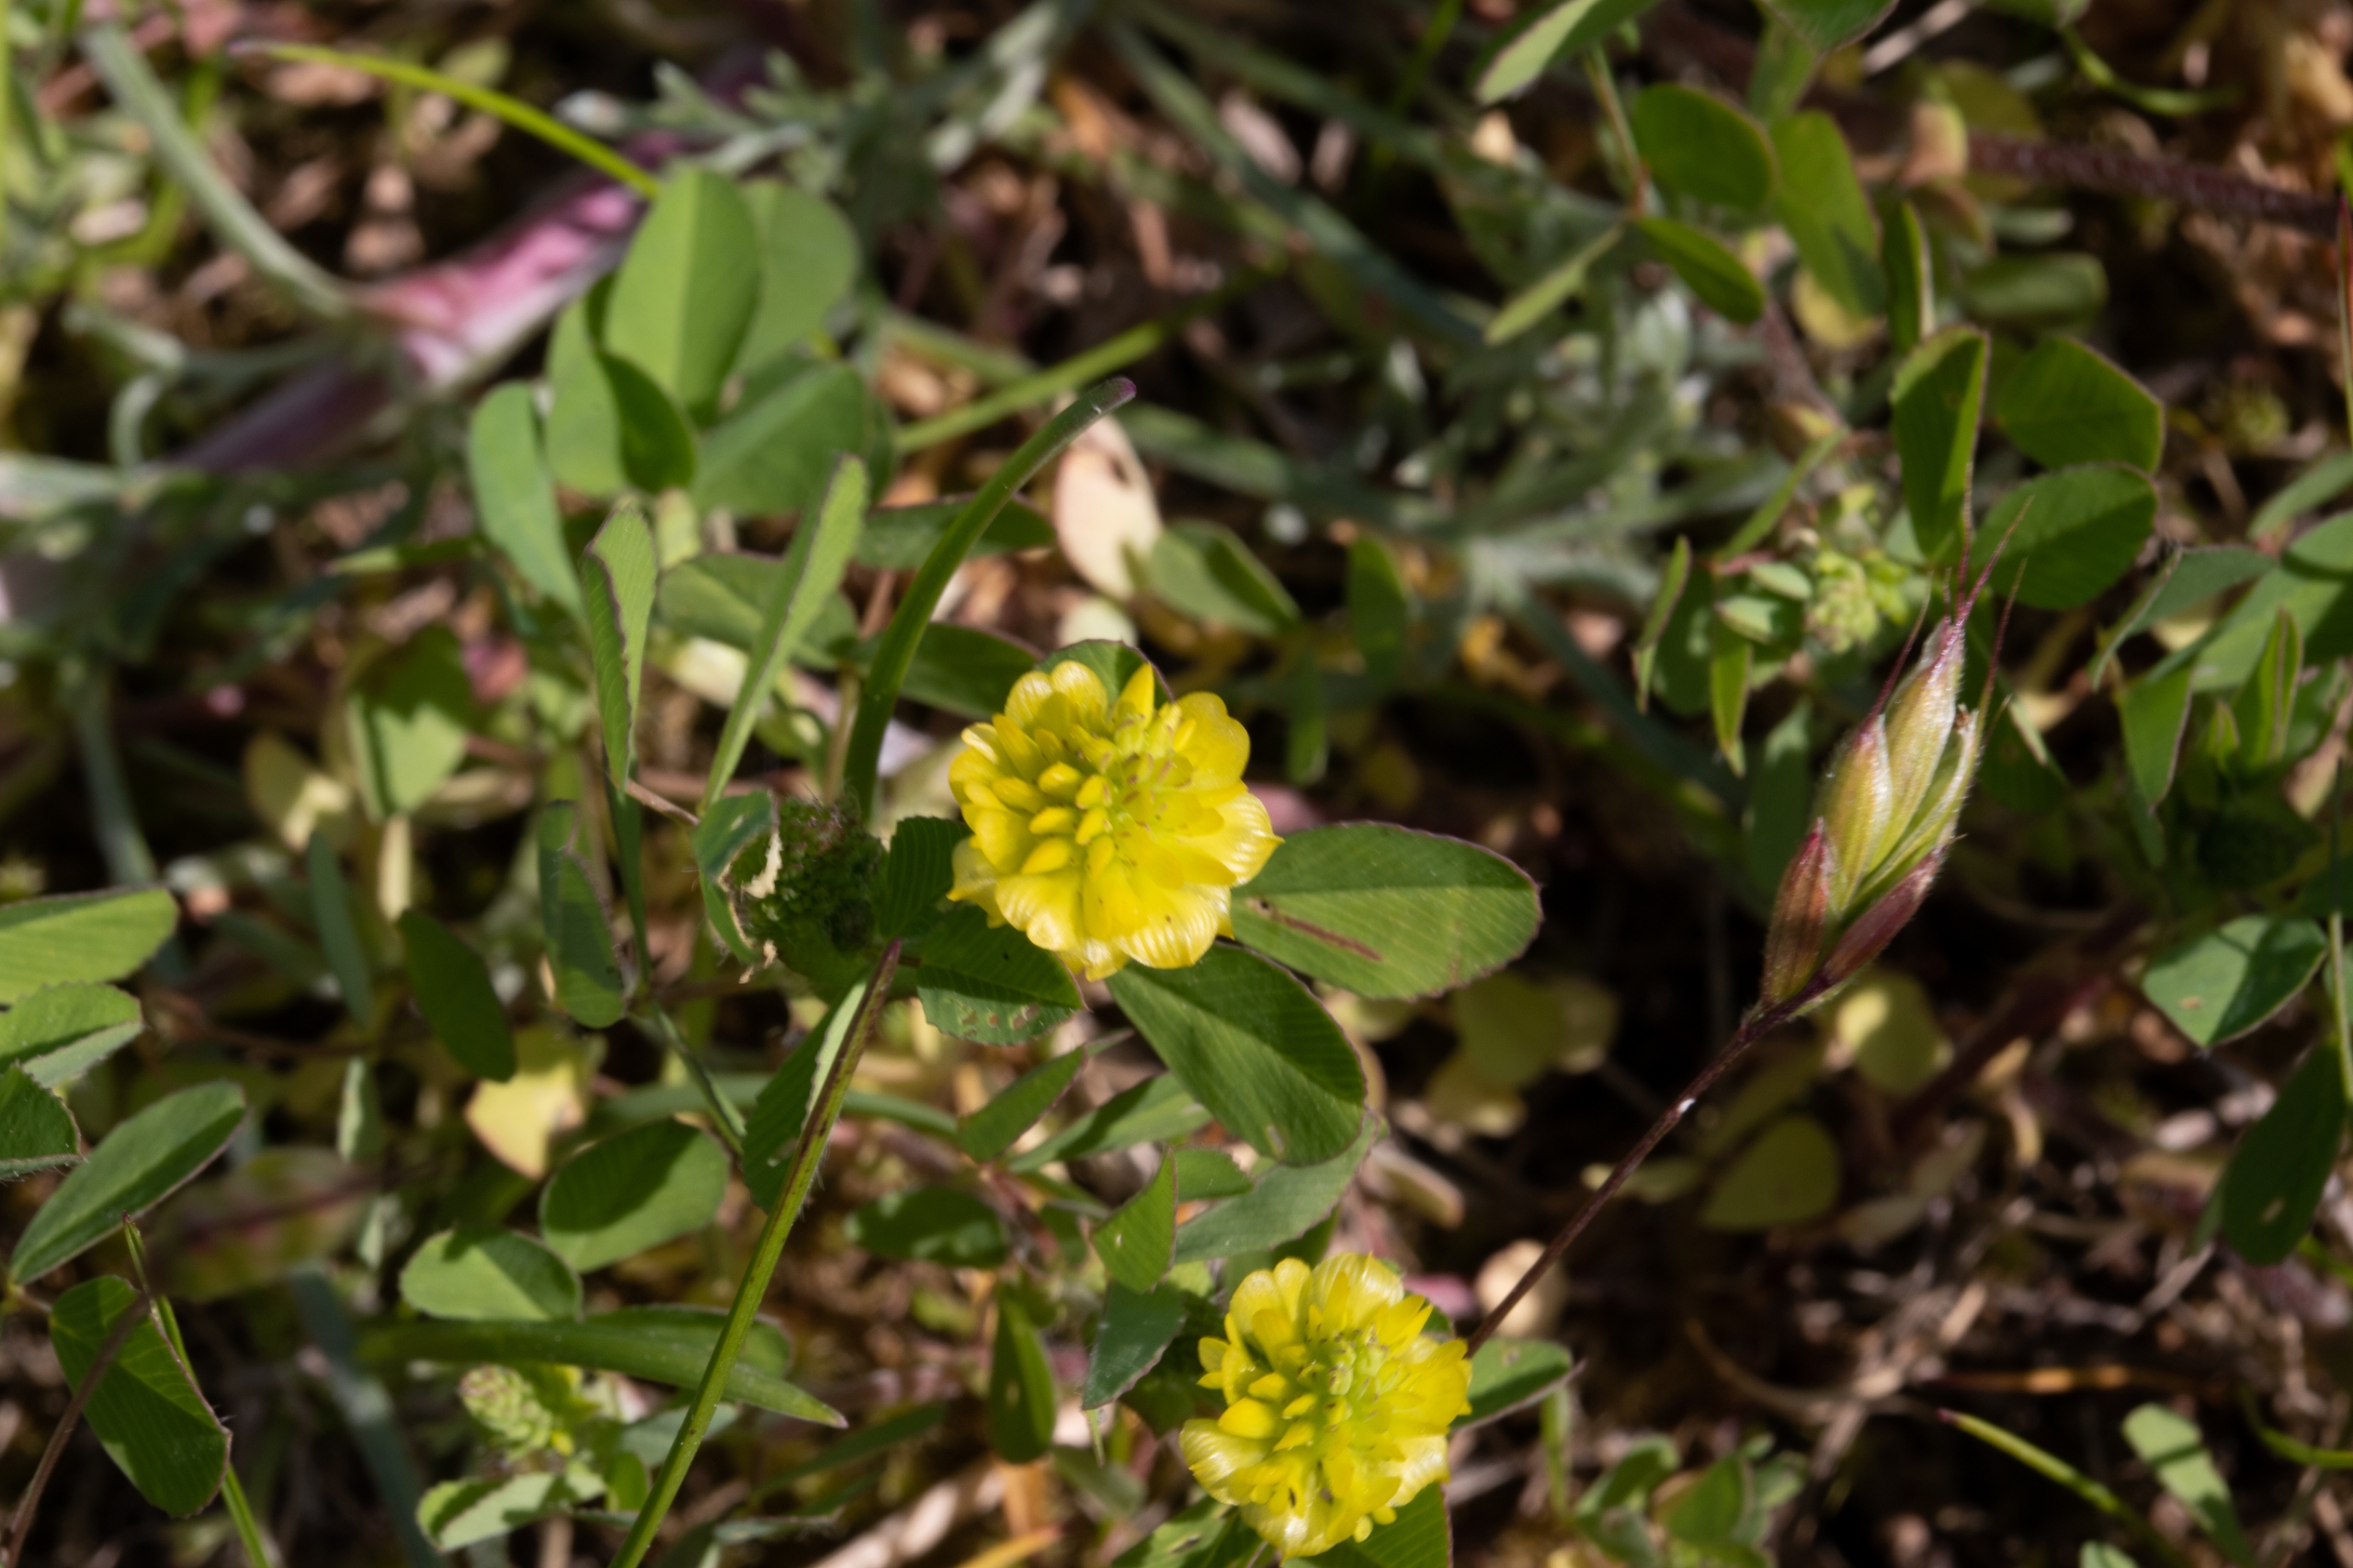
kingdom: Plantae
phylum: Tracheophyta
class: Magnoliopsida
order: Fabales
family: Fabaceae
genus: Trifolium
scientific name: Trifolium campestre
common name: Gul kløver
